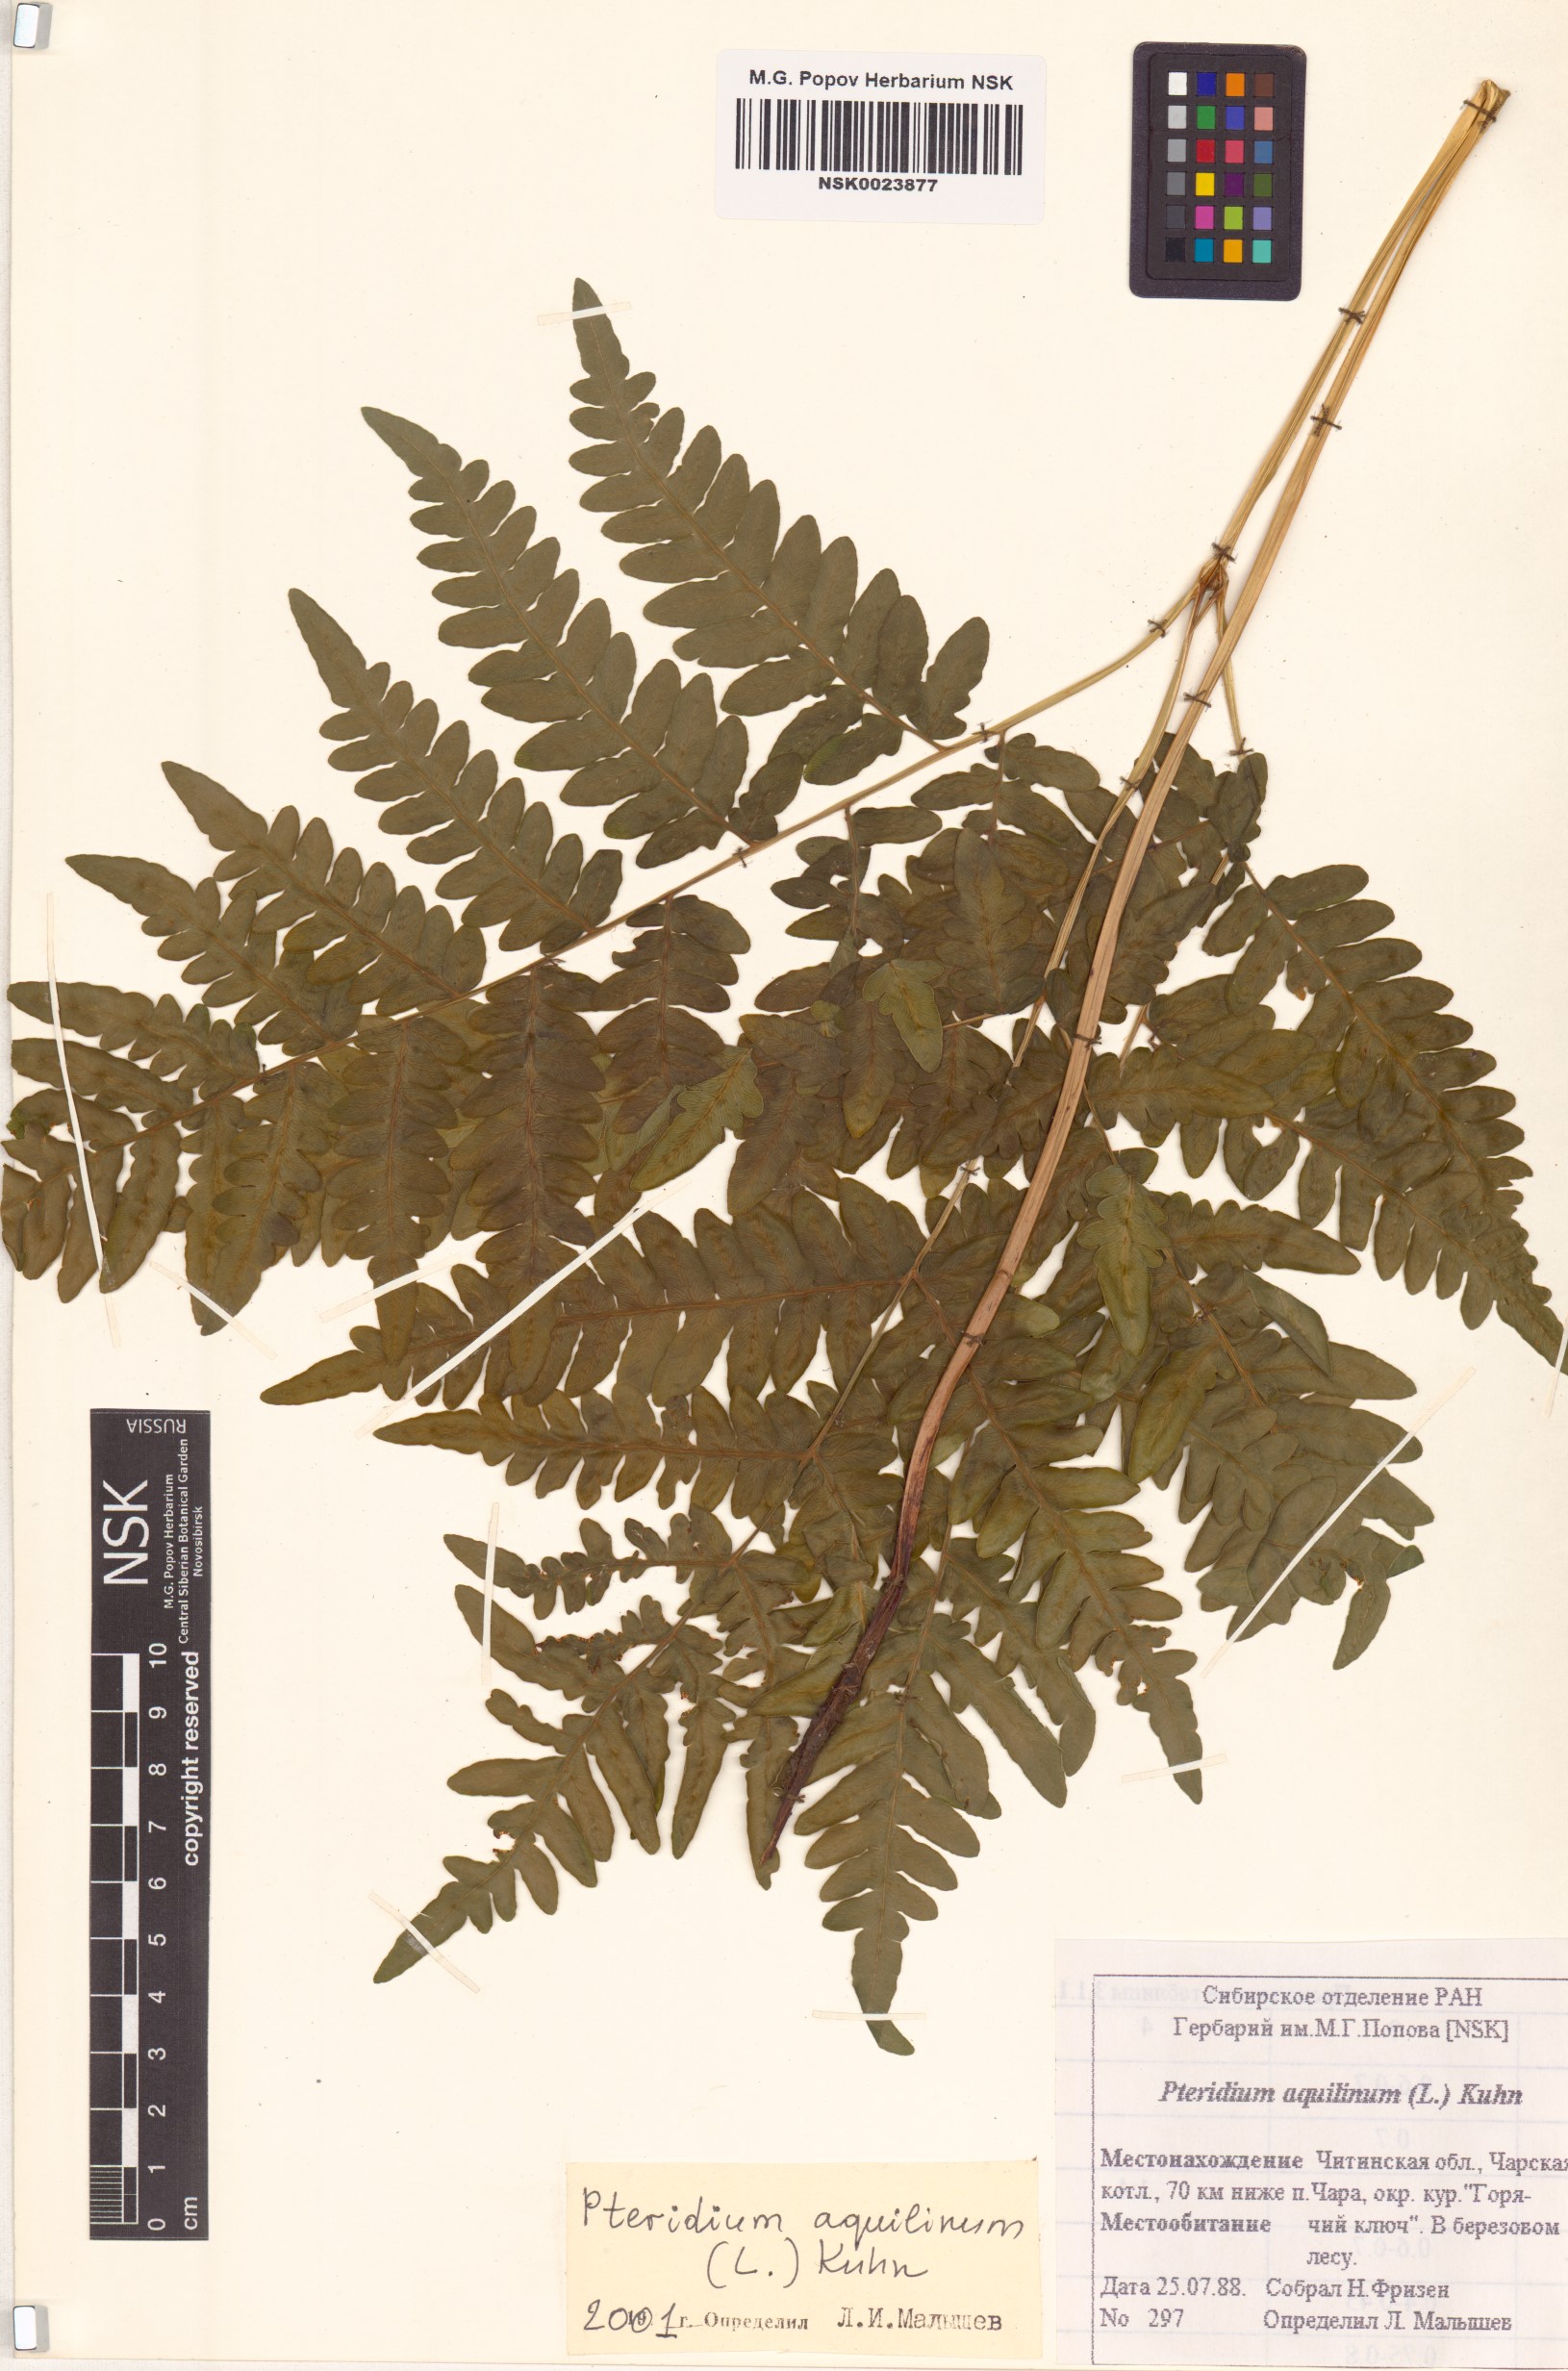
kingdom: Plantae
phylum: Tracheophyta
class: Polypodiopsida
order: Polypodiales
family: Dennstaedtiaceae
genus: Pteridium
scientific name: Pteridium aquilinum
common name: Bracken
